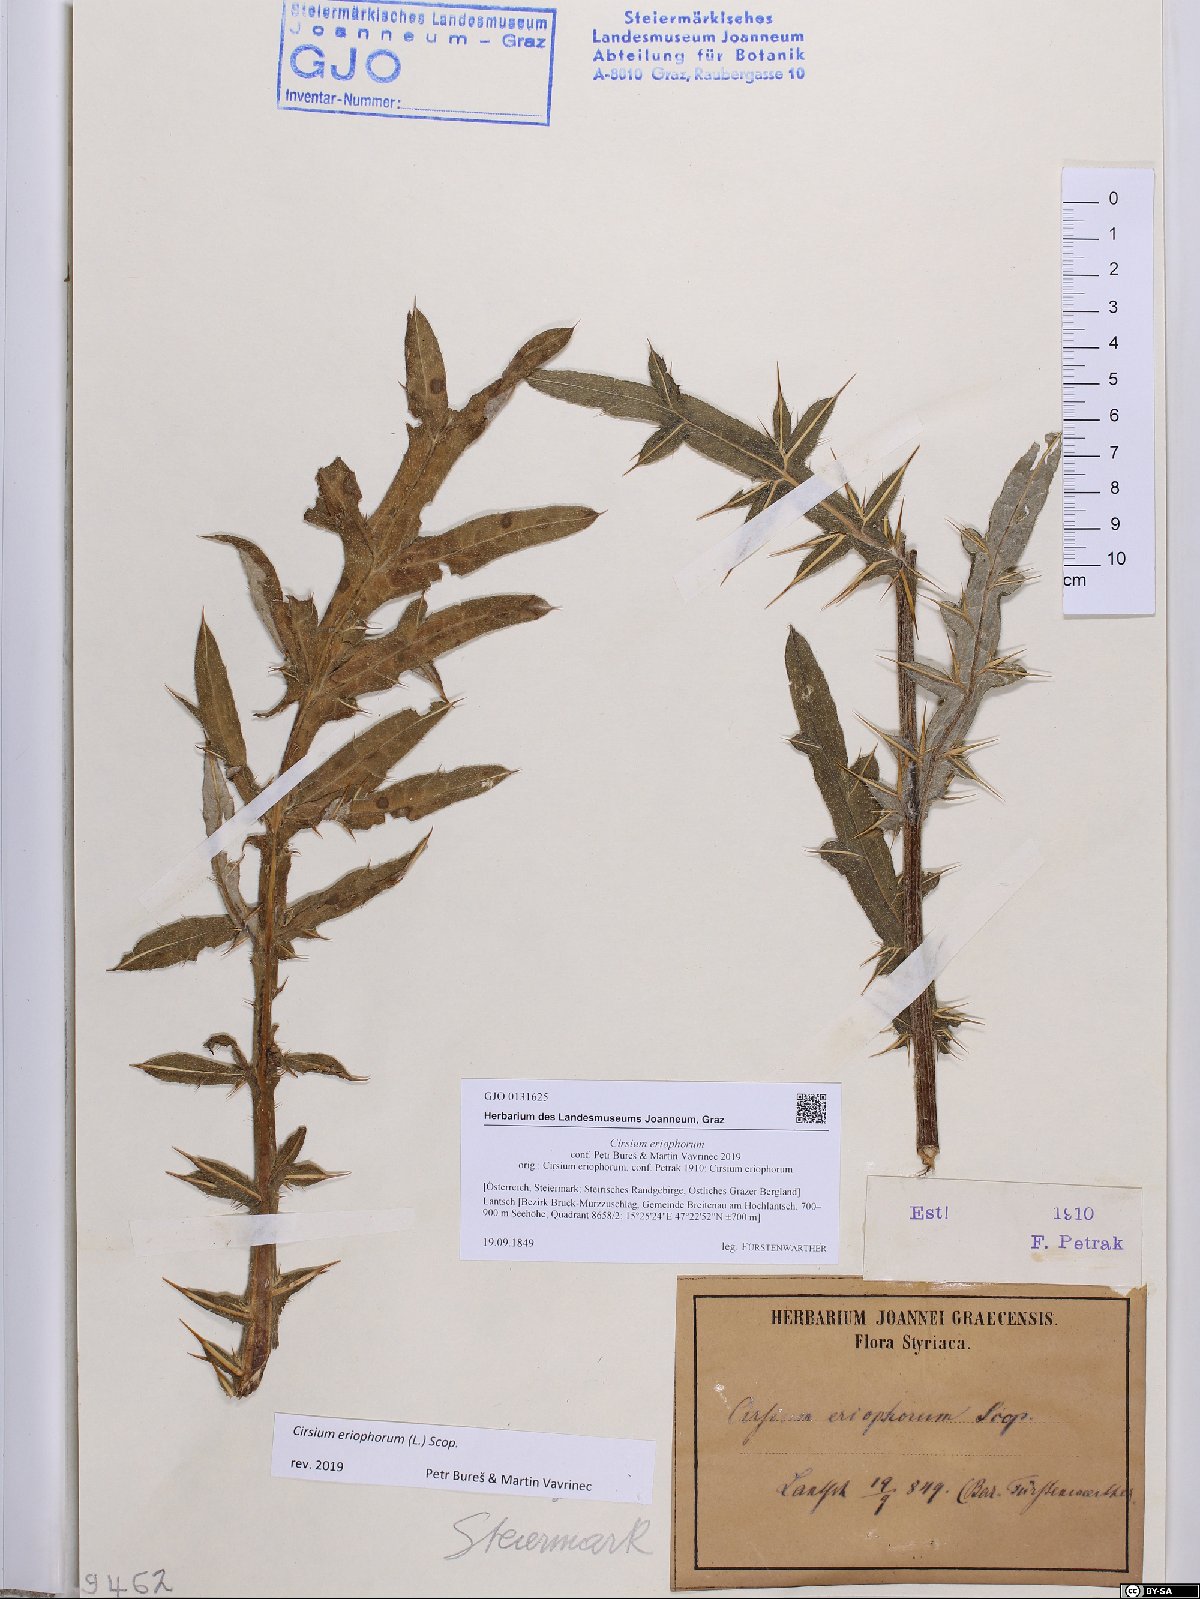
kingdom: Plantae
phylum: Tracheophyta
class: Magnoliopsida
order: Asterales
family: Asteraceae
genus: Lophiolepis
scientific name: Lophiolepis eriophora
